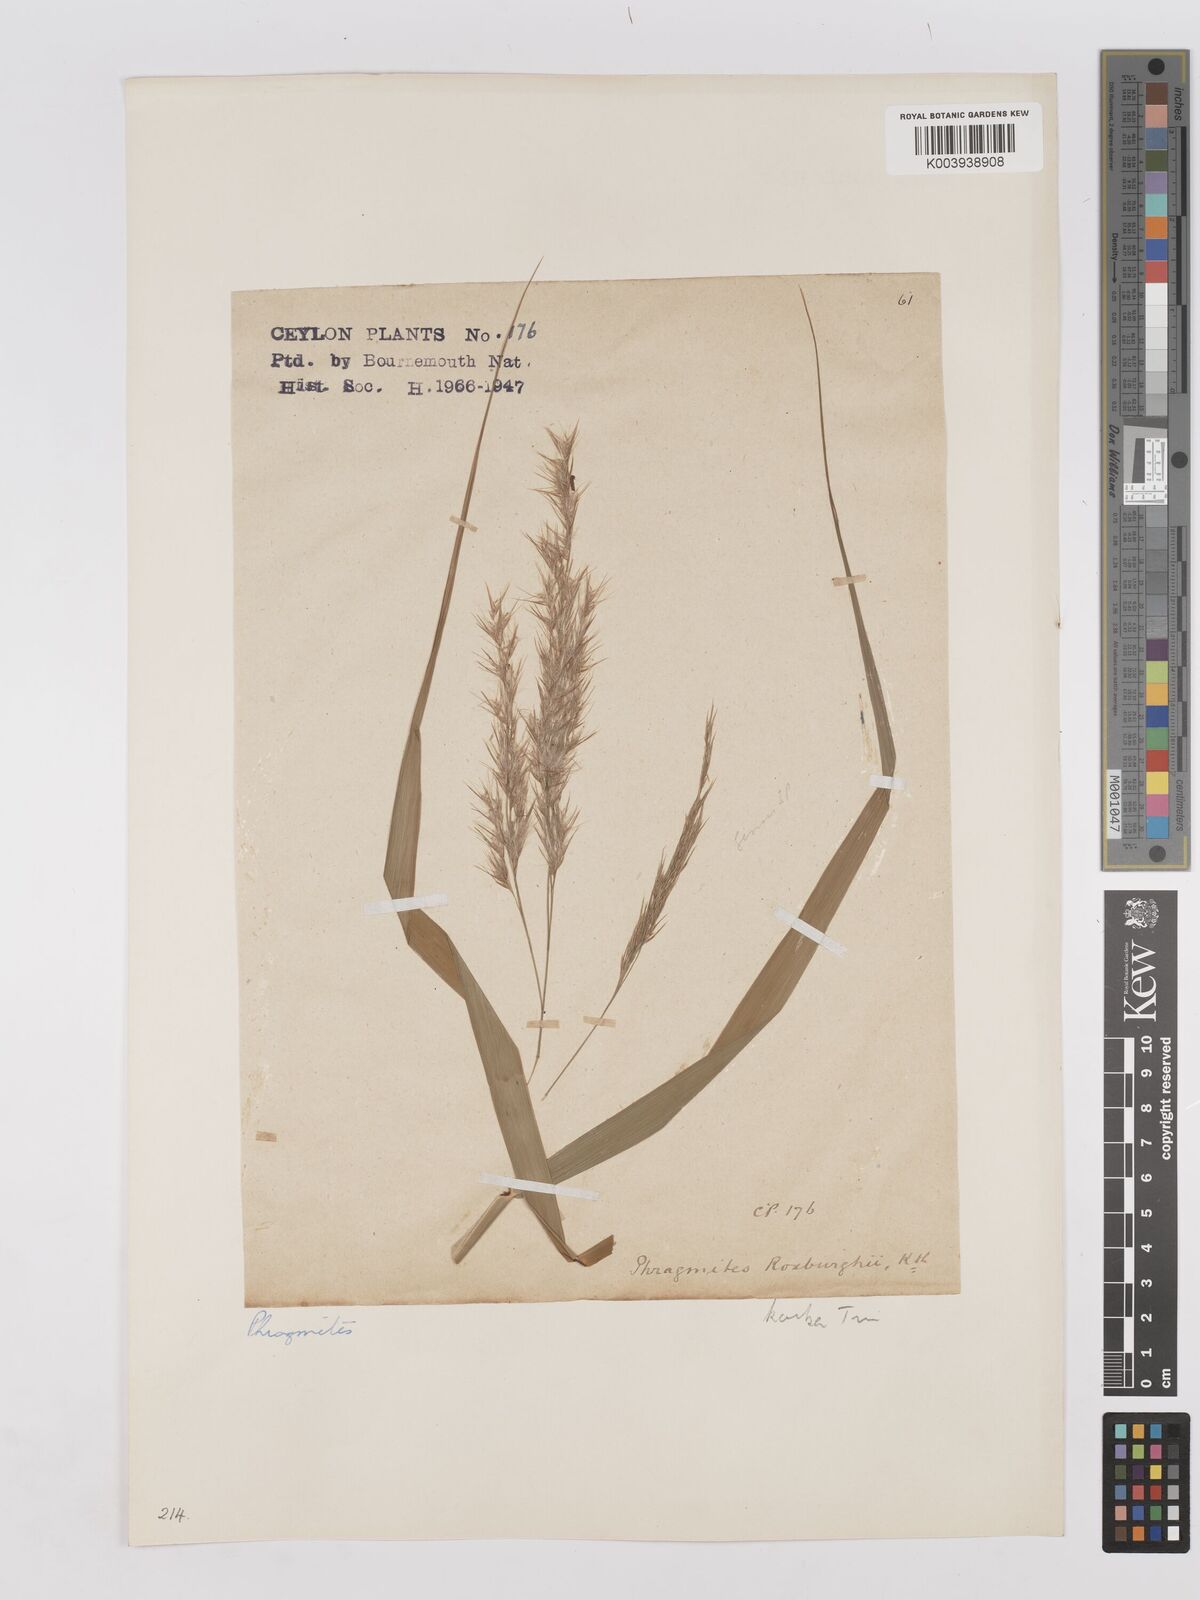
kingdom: Plantae
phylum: Tracheophyta
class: Liliopsida
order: Poales
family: Poaceae
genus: Phragmites
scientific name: Phragmites karka
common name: Tropical reed
